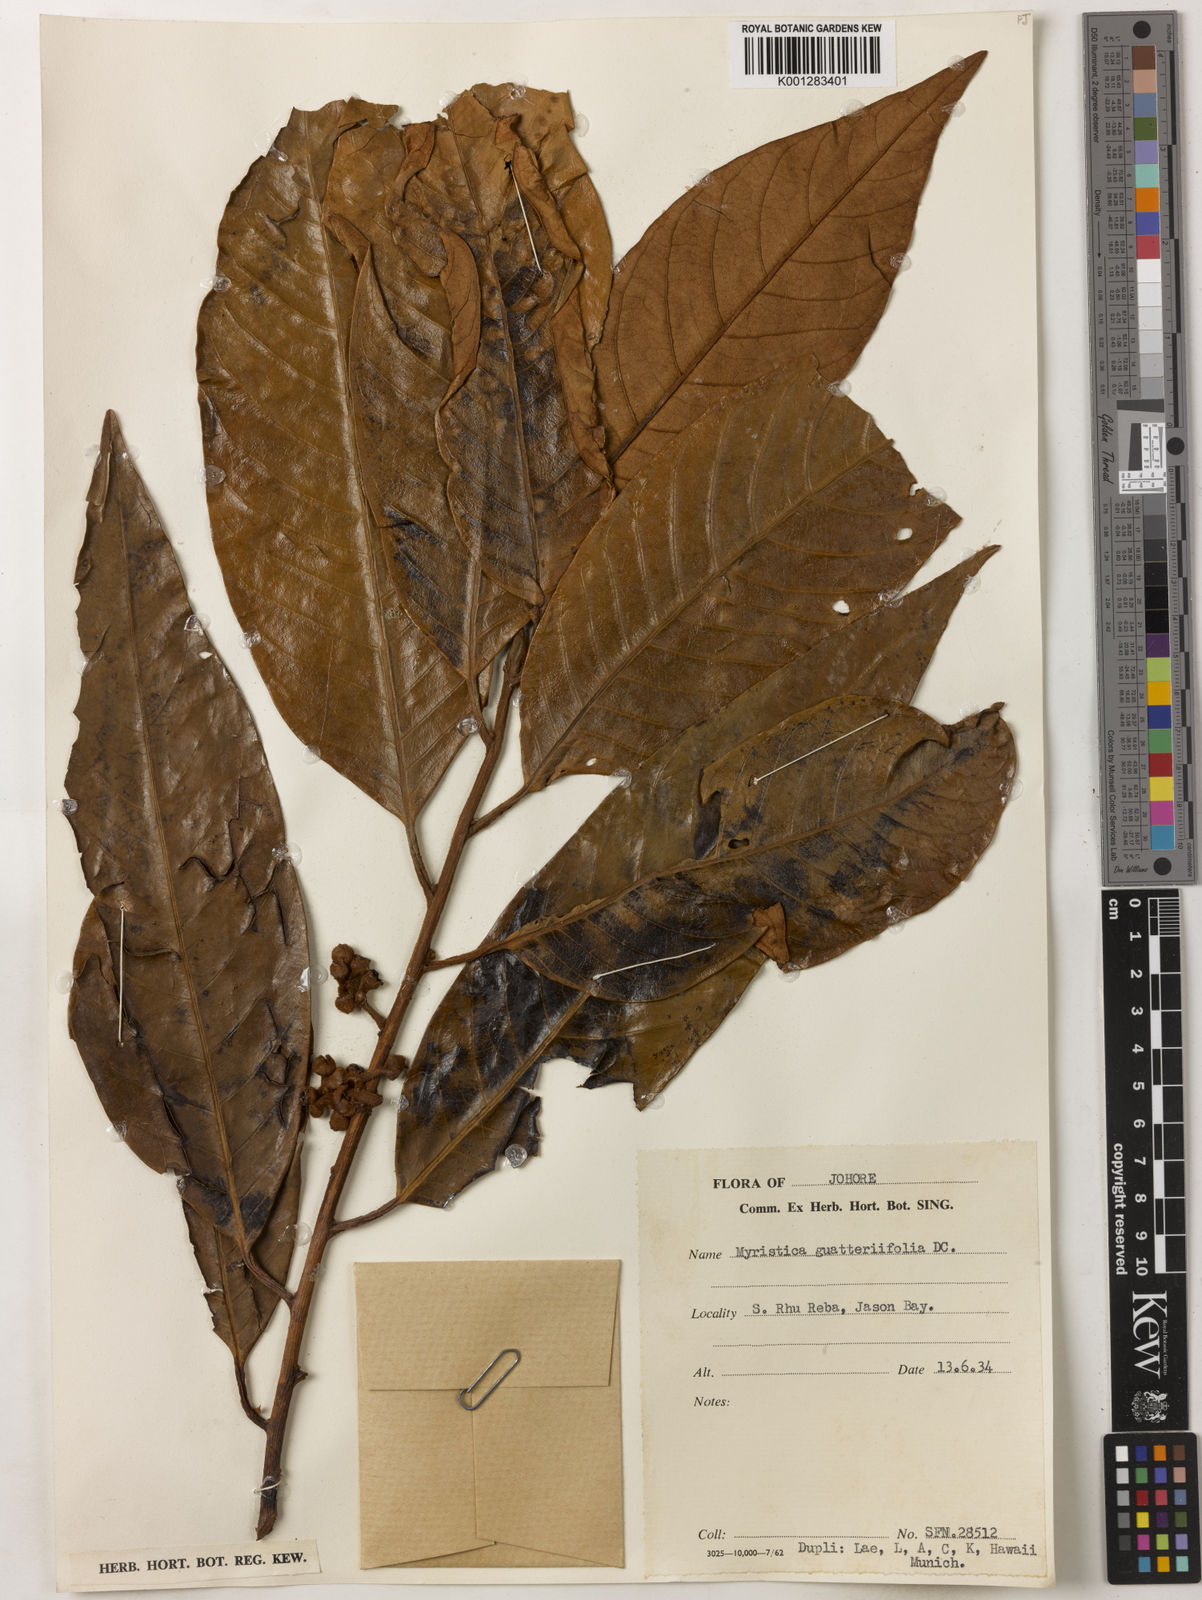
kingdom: Plantae
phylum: Tracheophyta
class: Magnoliopsida
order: Magnoliales
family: Myristicaceae
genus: Myristica
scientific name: Myristica
